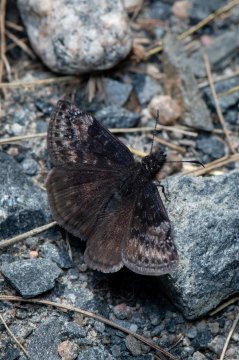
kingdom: Animalia
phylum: Arthropoda
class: Insecta
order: Lepidoptera
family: Hesperiidae
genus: Gesta
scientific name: Gesta
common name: Columbine Duskywing
